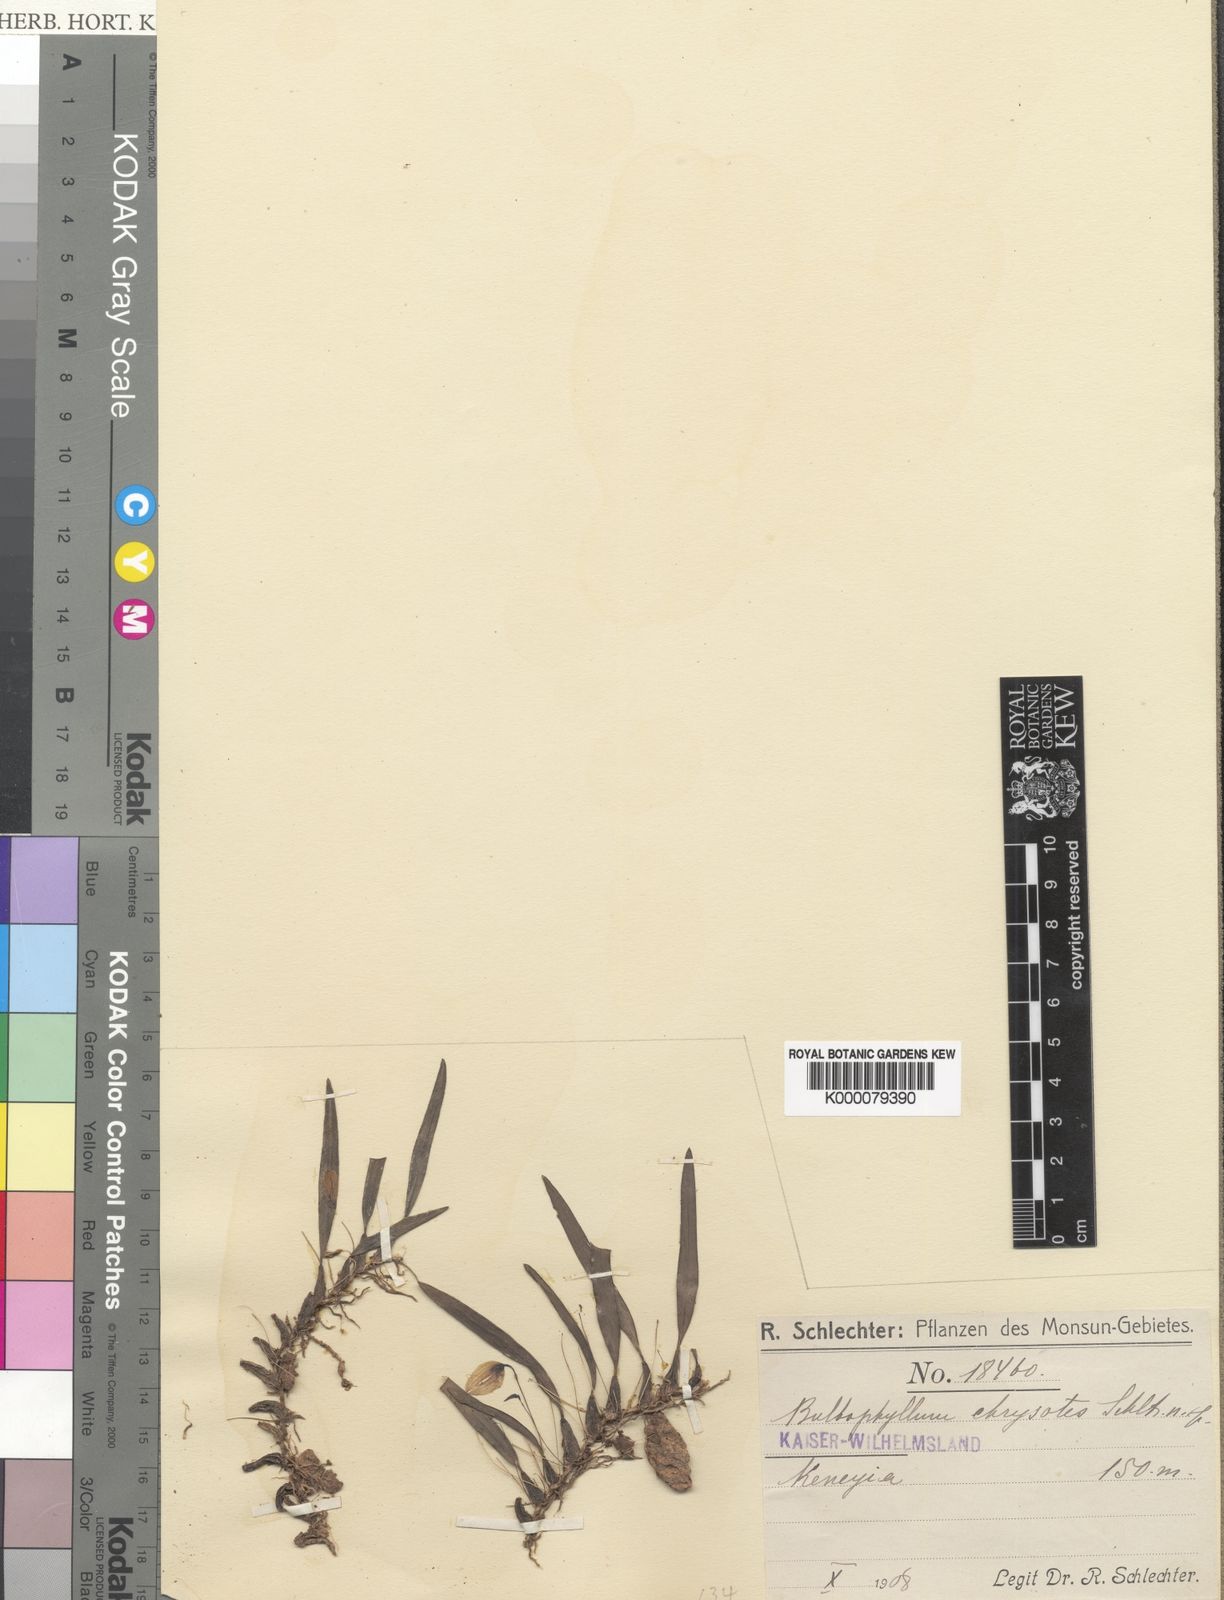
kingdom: Plantae
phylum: Tracheophyta
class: Liliopsida
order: Asparagales
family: Orchidaceae
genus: Bulbophyllum
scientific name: Bulbophyllum chrysotes
